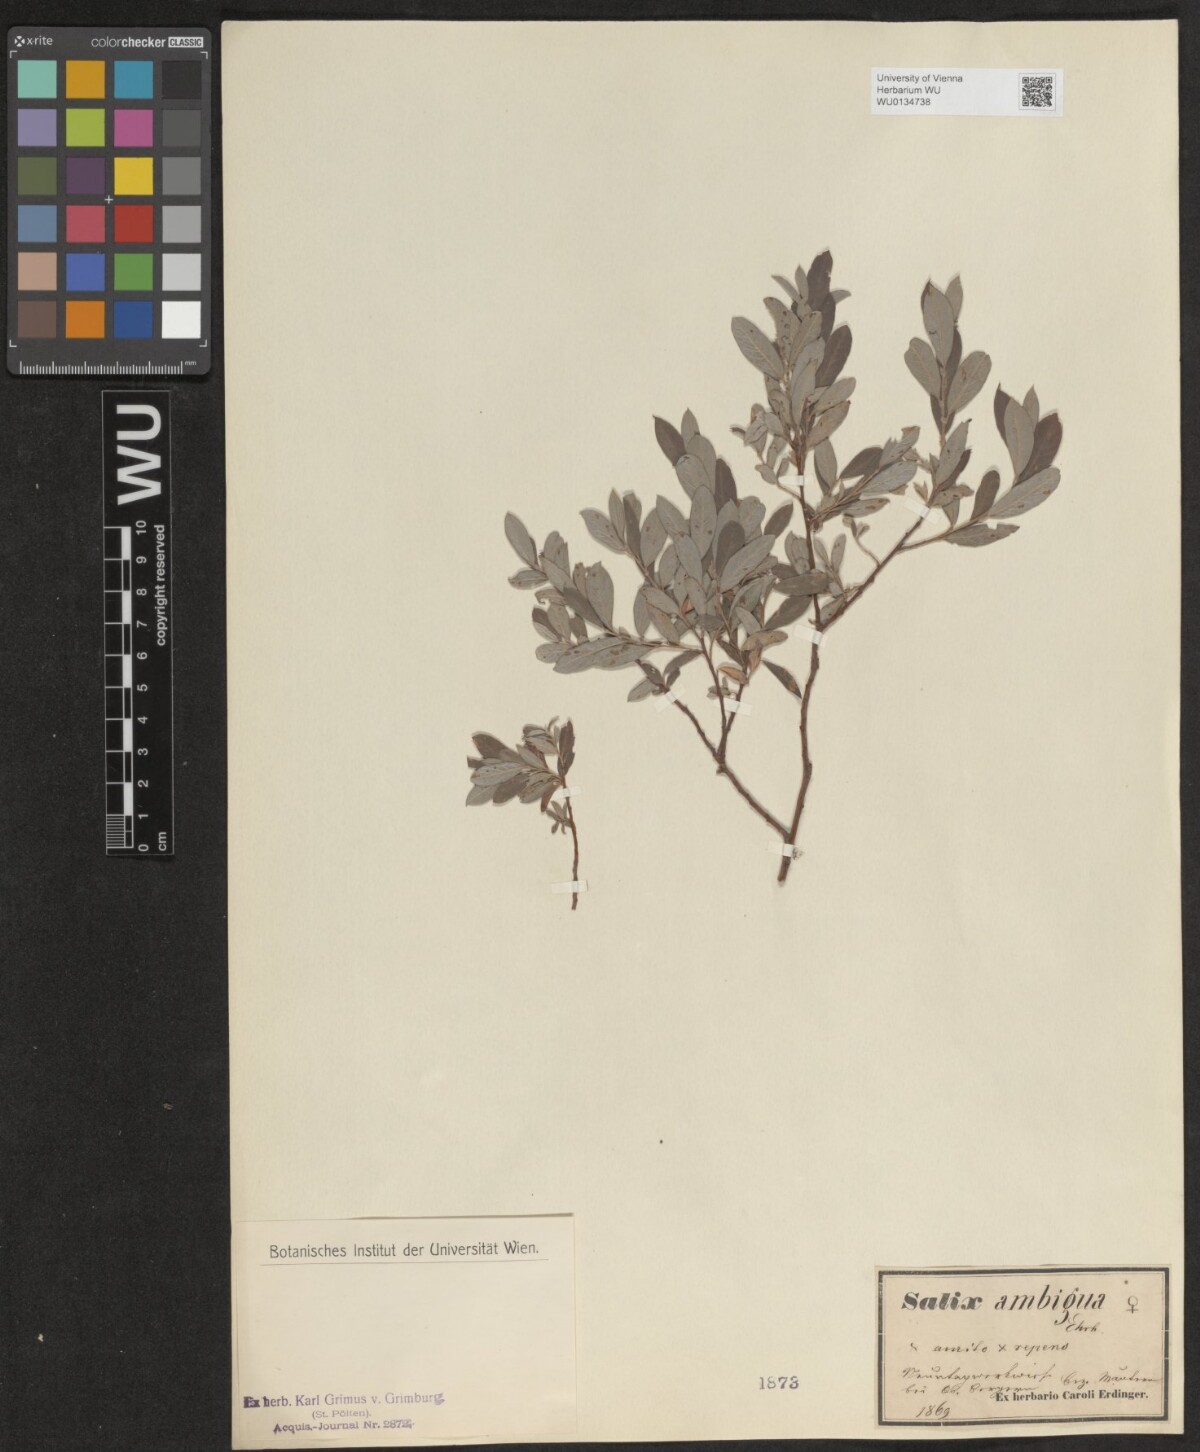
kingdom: Plantae
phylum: Tracheophyta
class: Magnoliopsida
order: Malpighiales
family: Salicaceae
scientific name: Salicaceae
